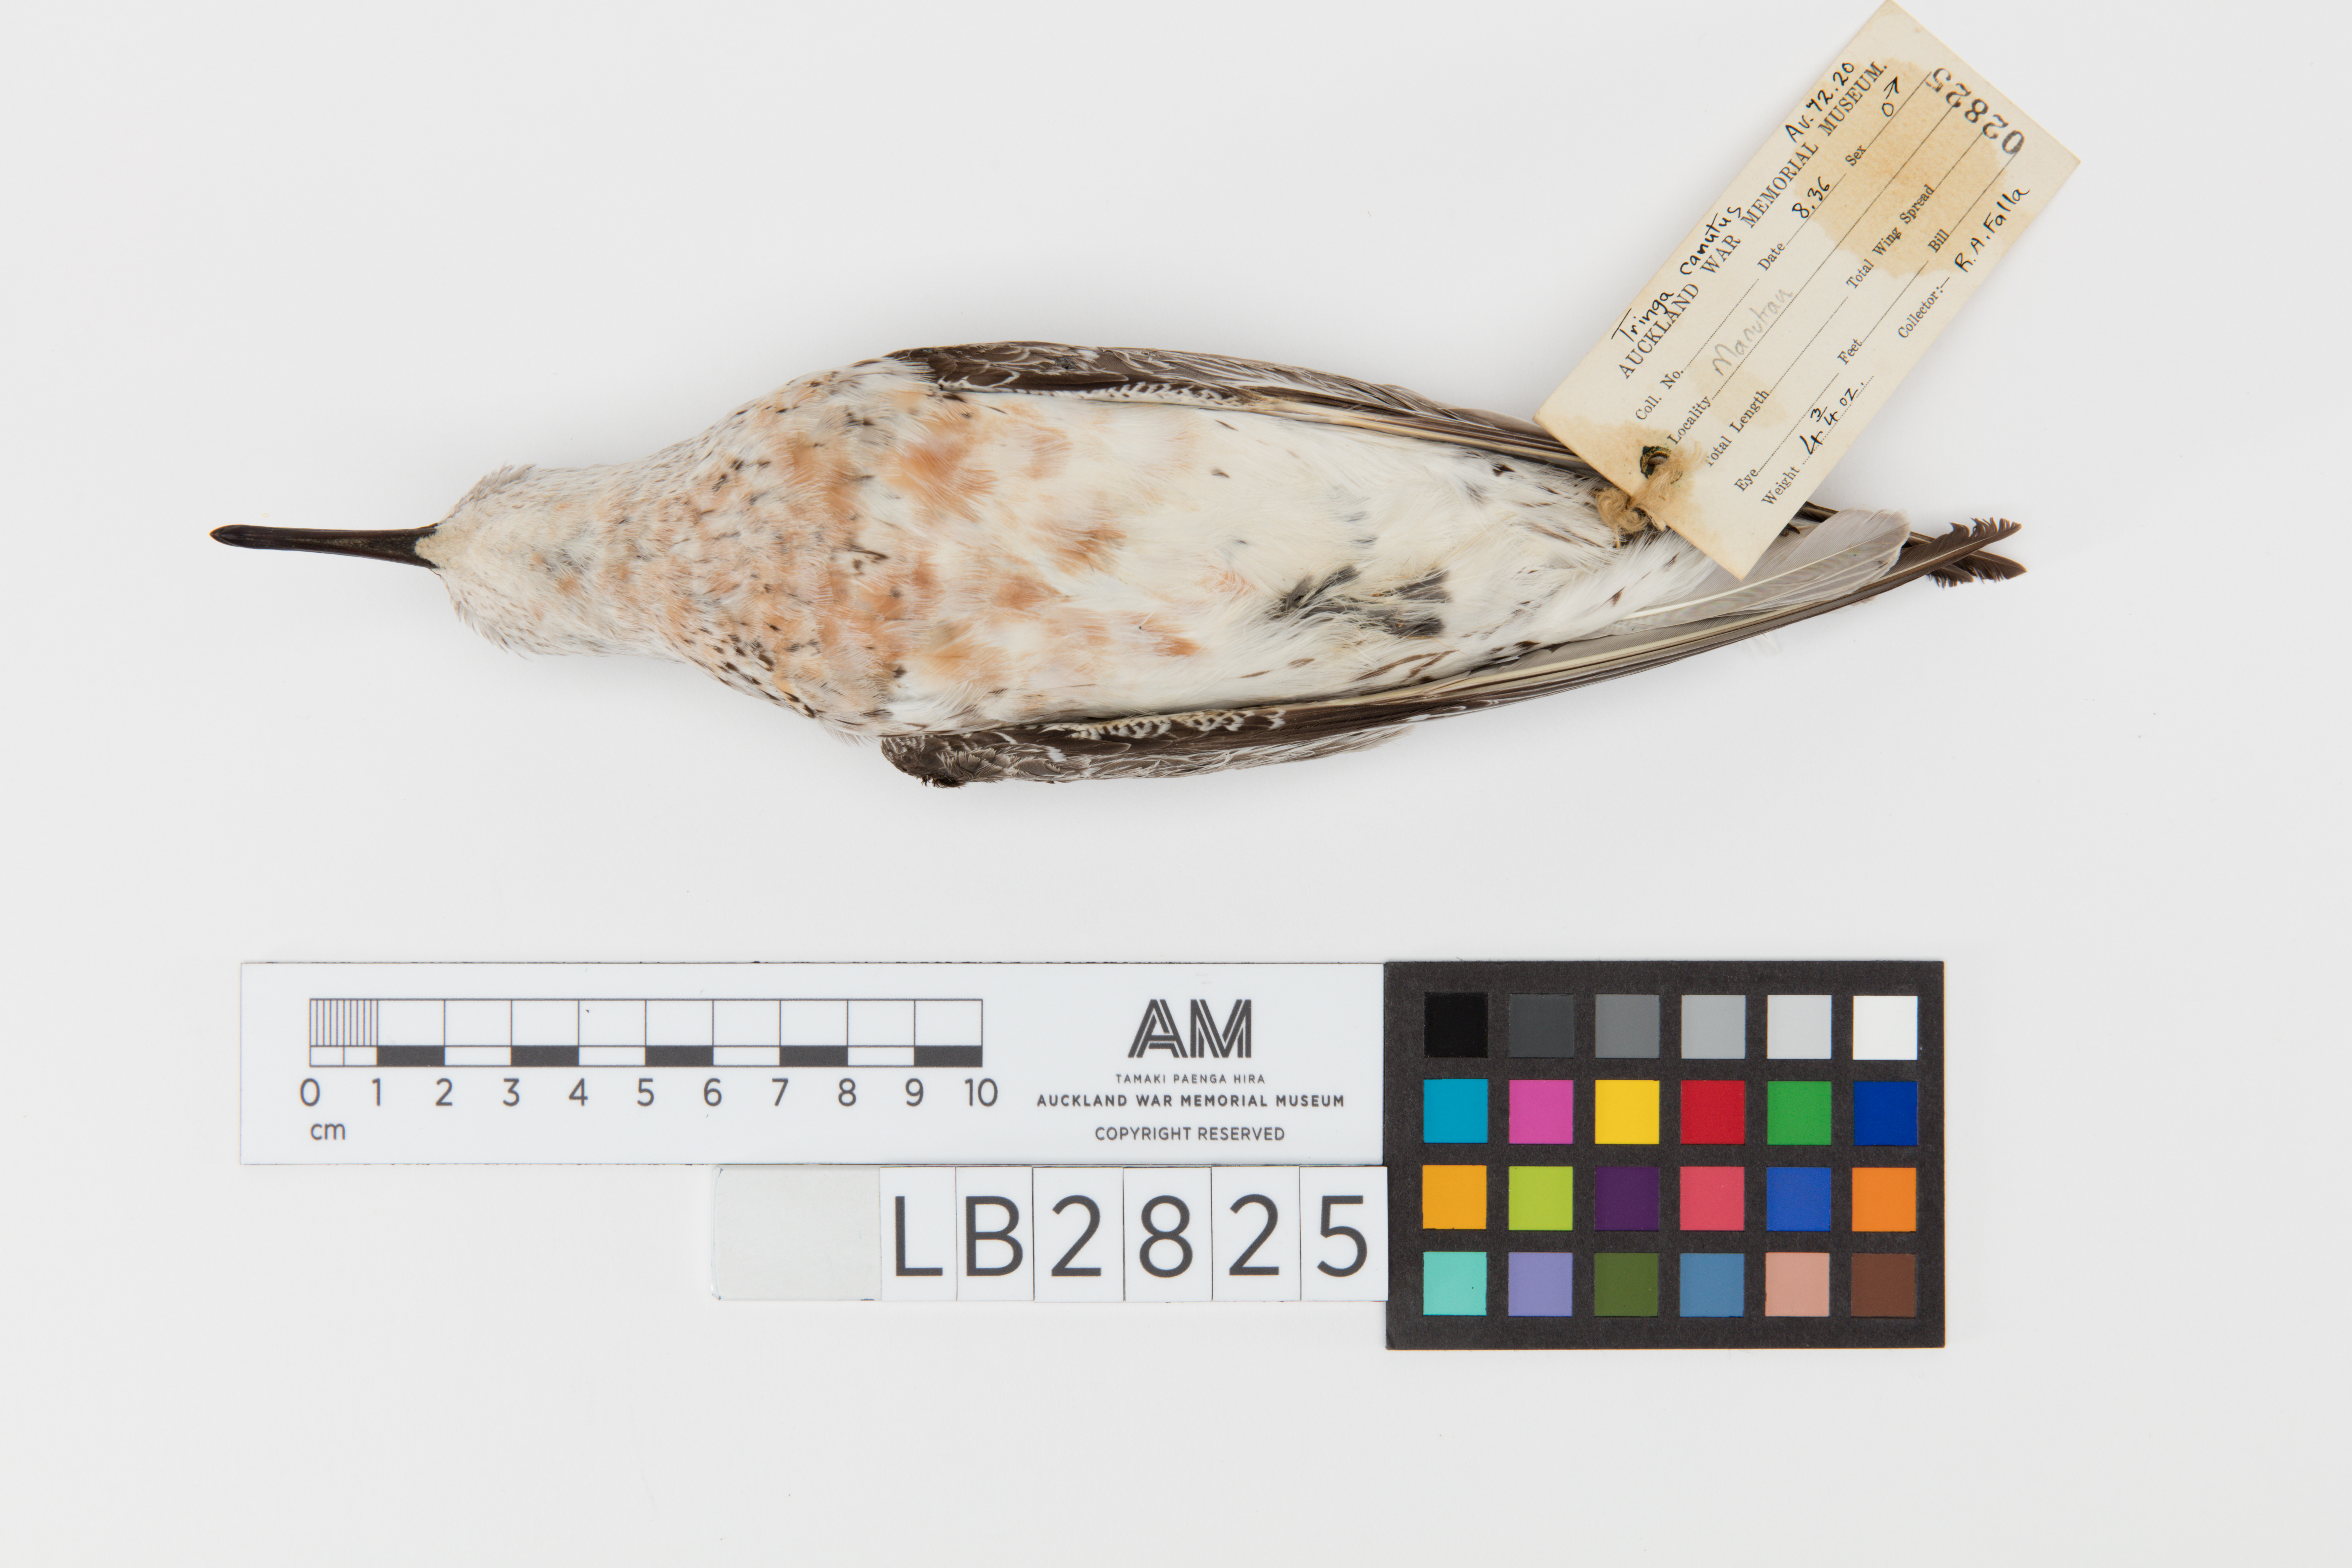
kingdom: Animalia
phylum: Chordata
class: Aves
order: Charadriiformes
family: Scolopacidae
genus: Calidris
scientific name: Calidris canutus
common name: Red knot
